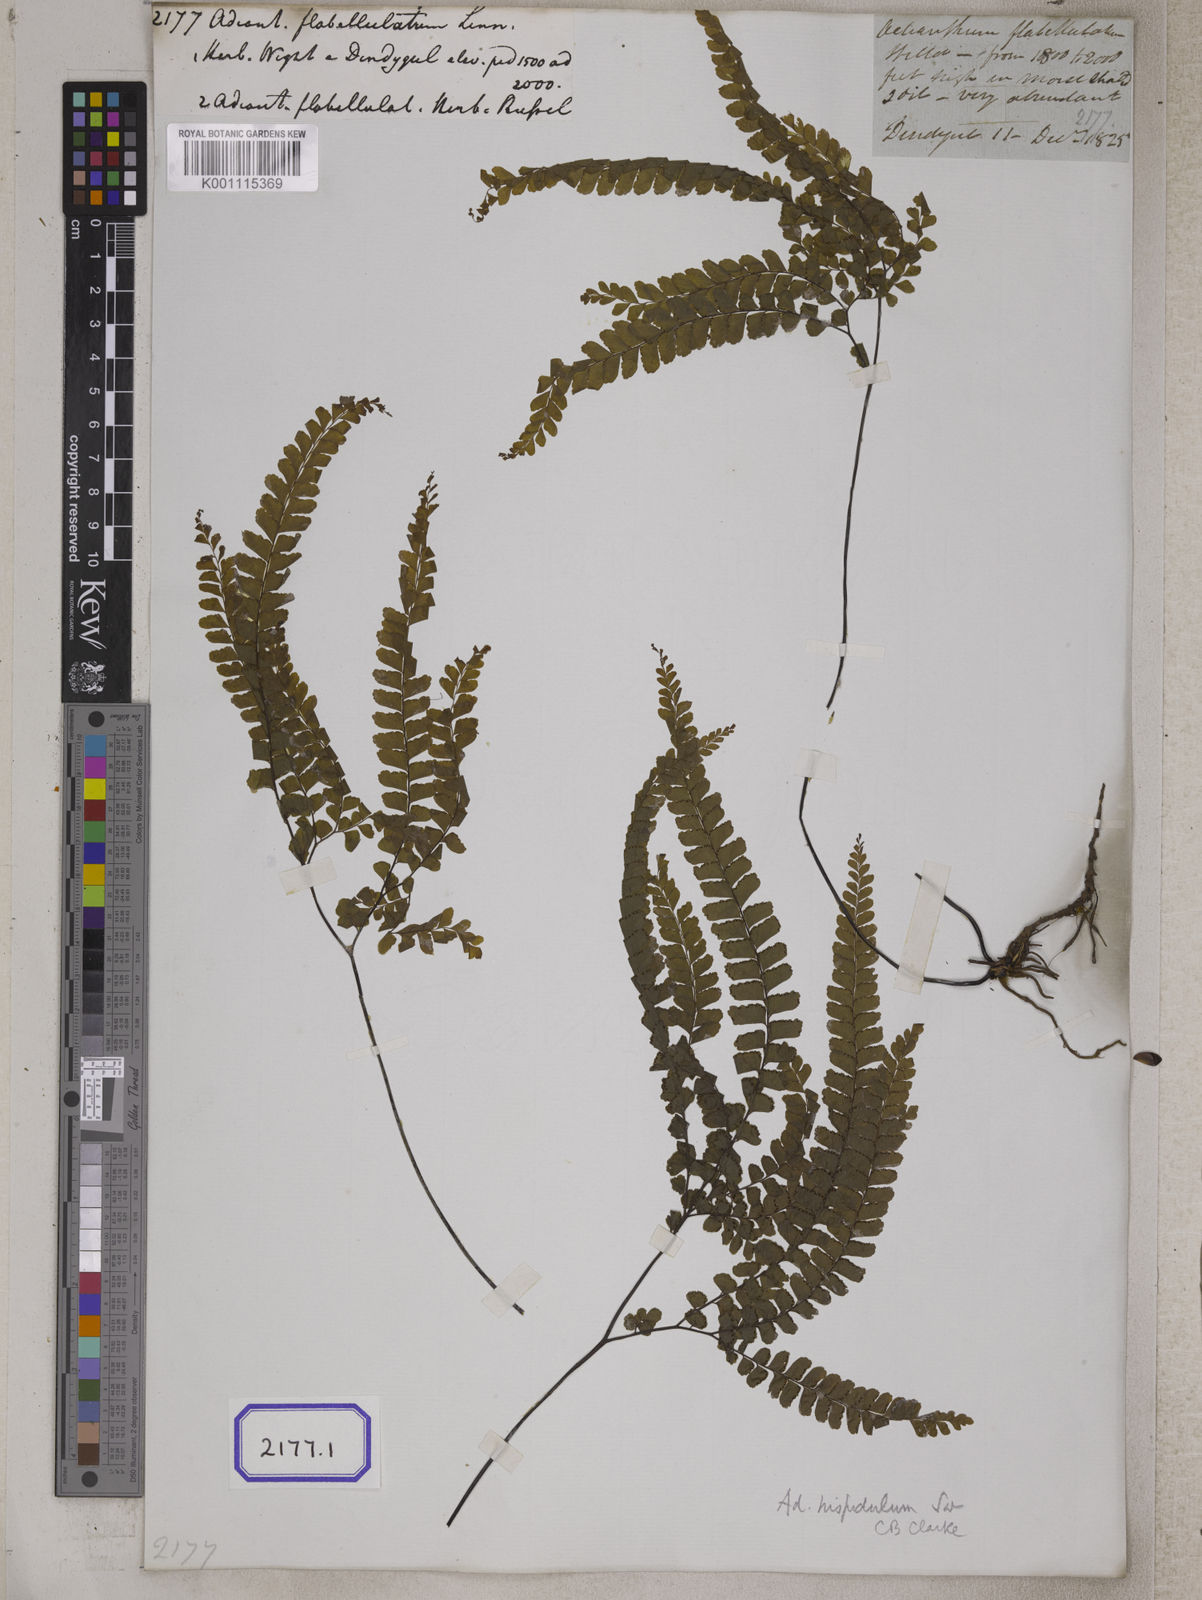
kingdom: Plantae
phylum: Tracheophyta
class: Polypodiopsida
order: Polypodiales
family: Pteridaceae
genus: Adiantum
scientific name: Adiantum flabellulatum
